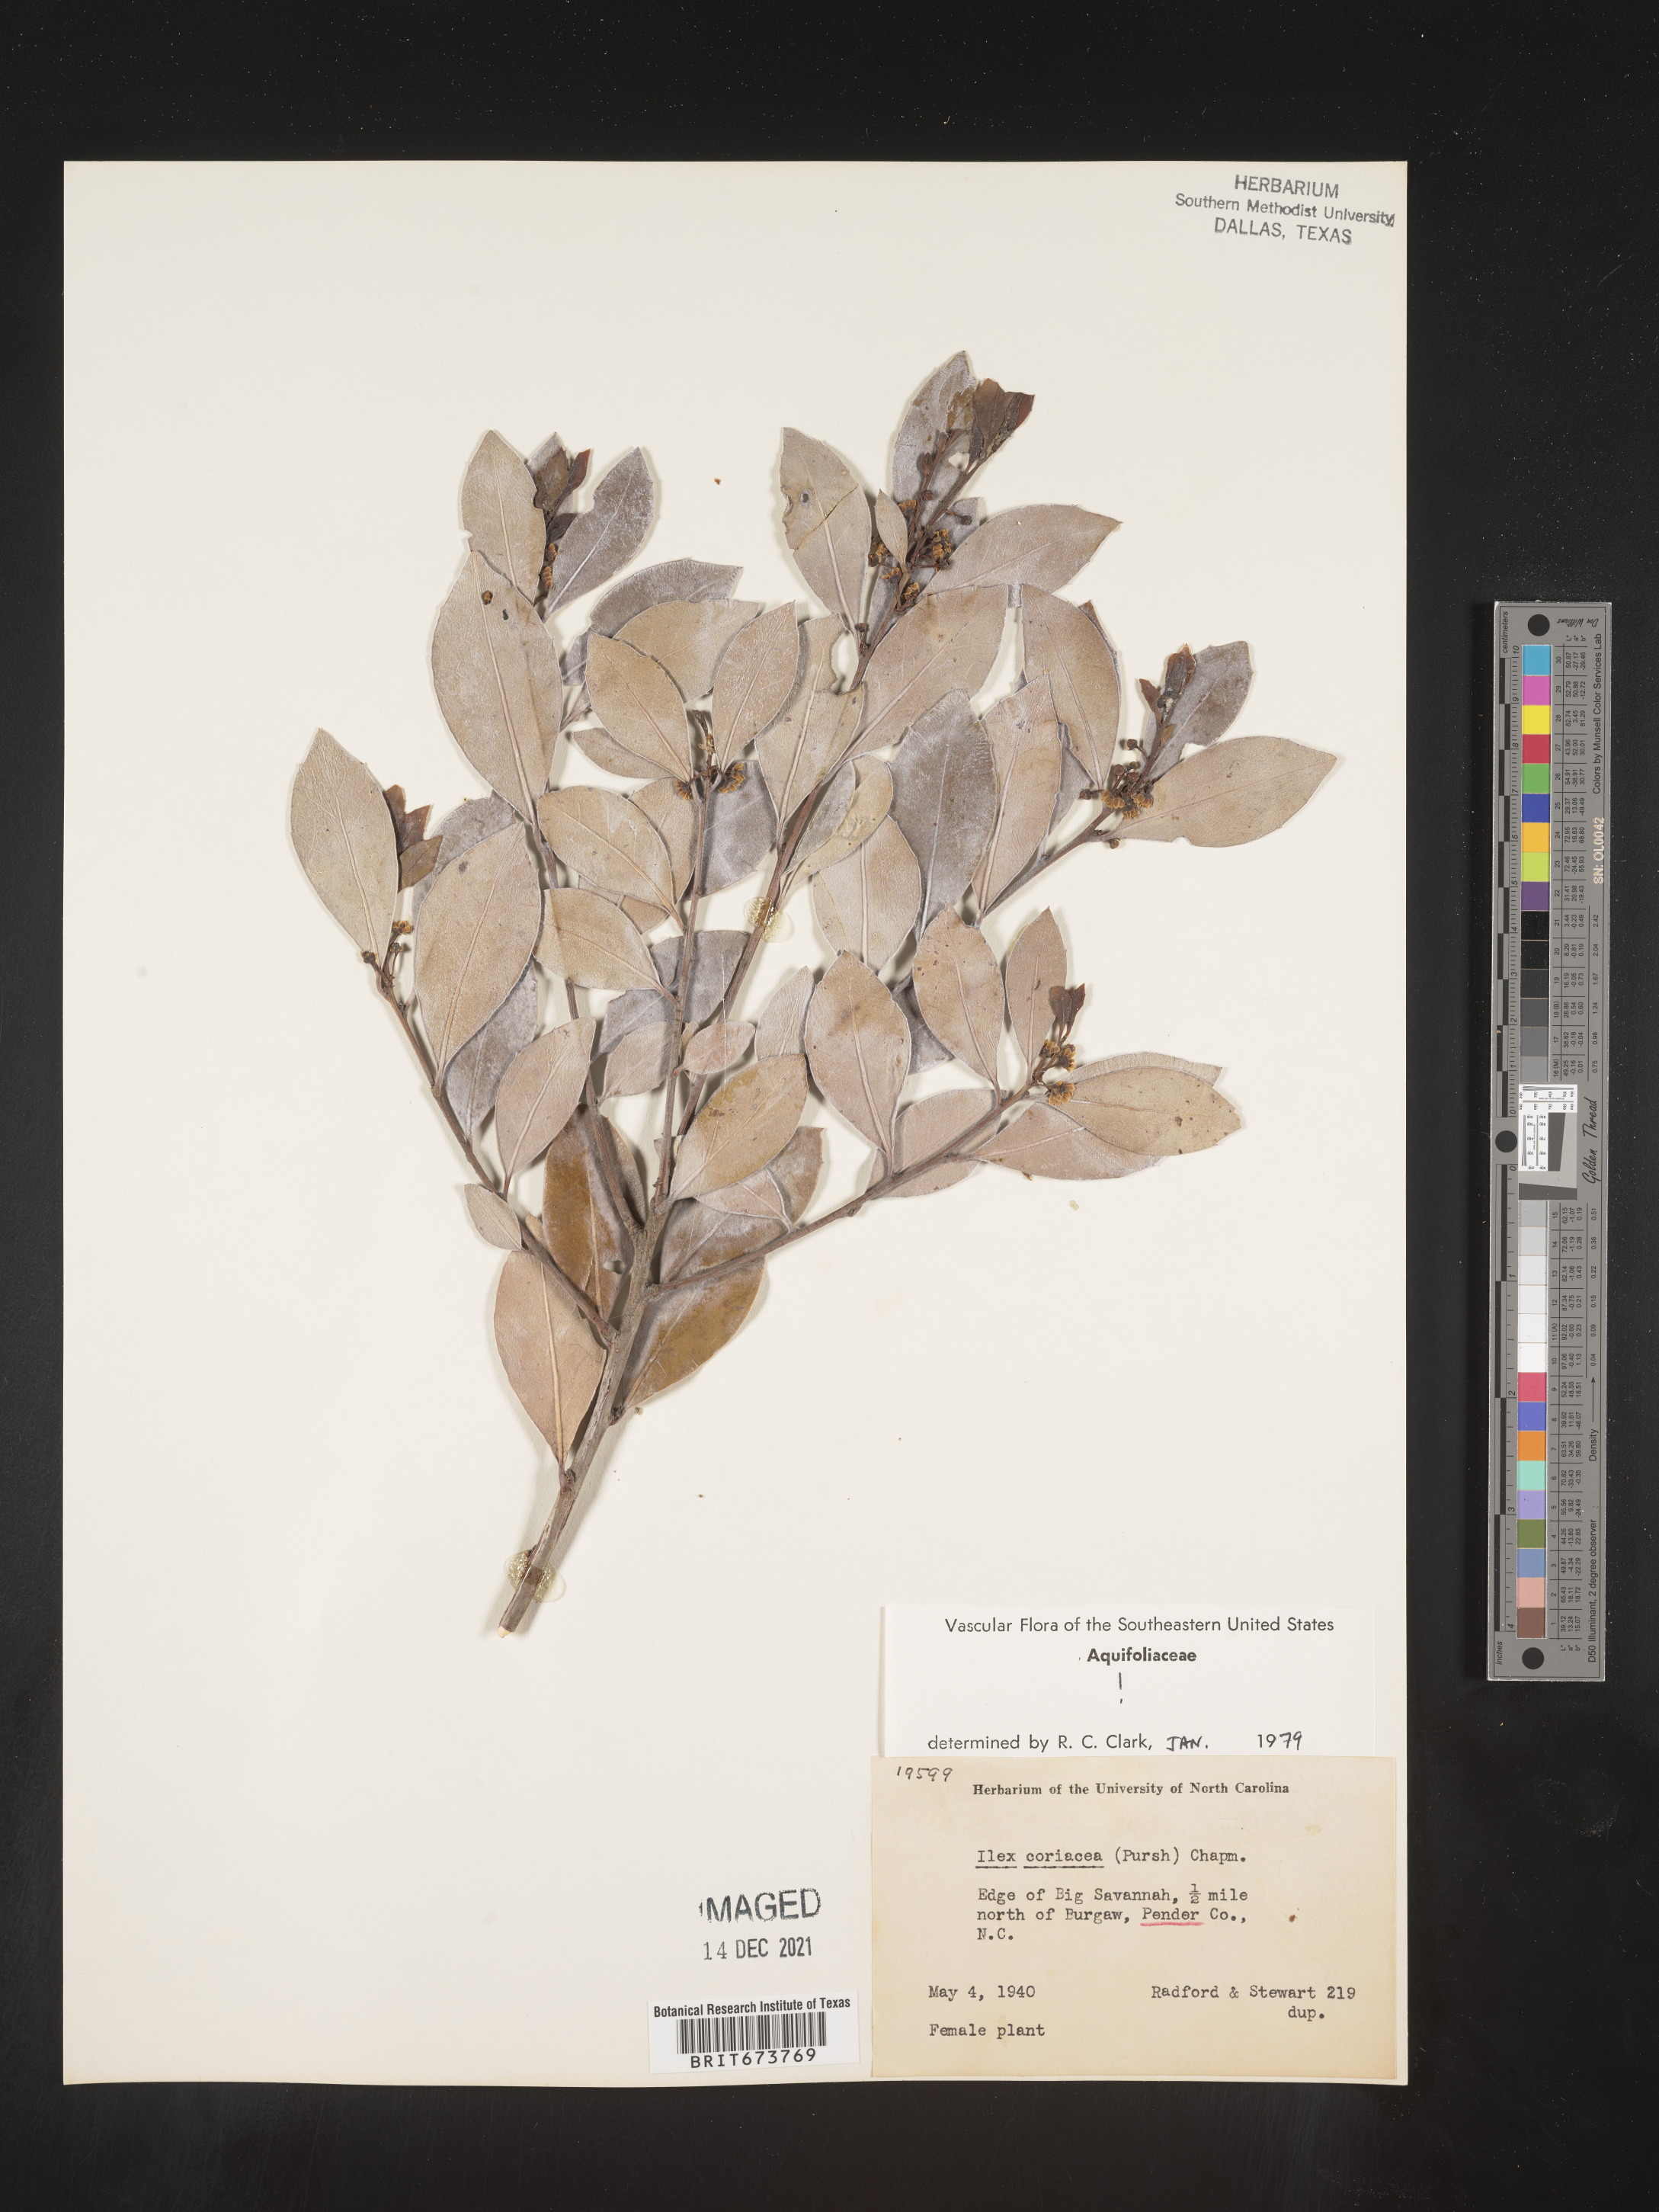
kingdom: Plantae
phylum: Tracheophyta
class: Magnoliopsida
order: Aquifoliales
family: Aquifoliaceae
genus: Ilex
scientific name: Ilex coriacea
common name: Sweet gallberry
